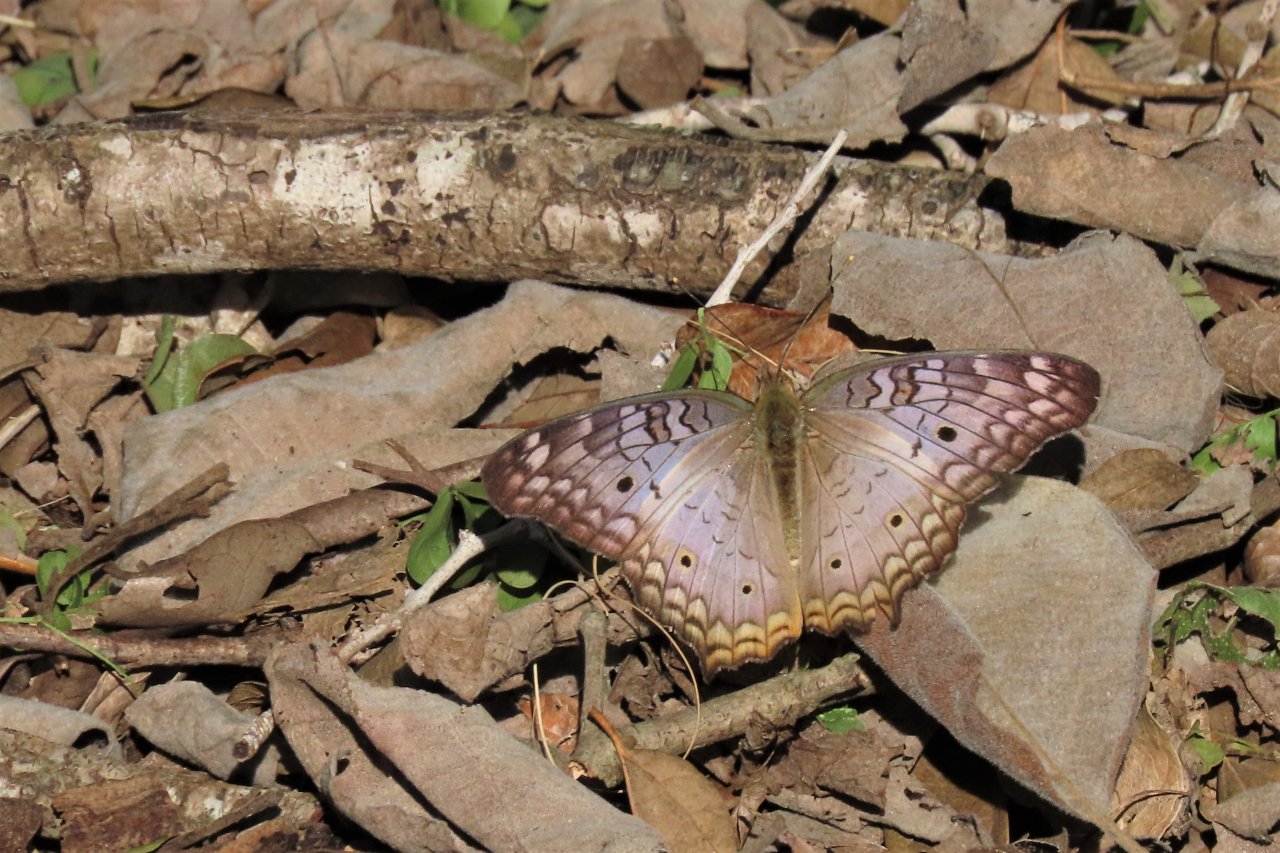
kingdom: Animalia
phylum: Arthropoda
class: Insecta
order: Lepidoptera
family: Nymphalidae
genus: Anartia
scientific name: Anartia jatrophae
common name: White Peacock
